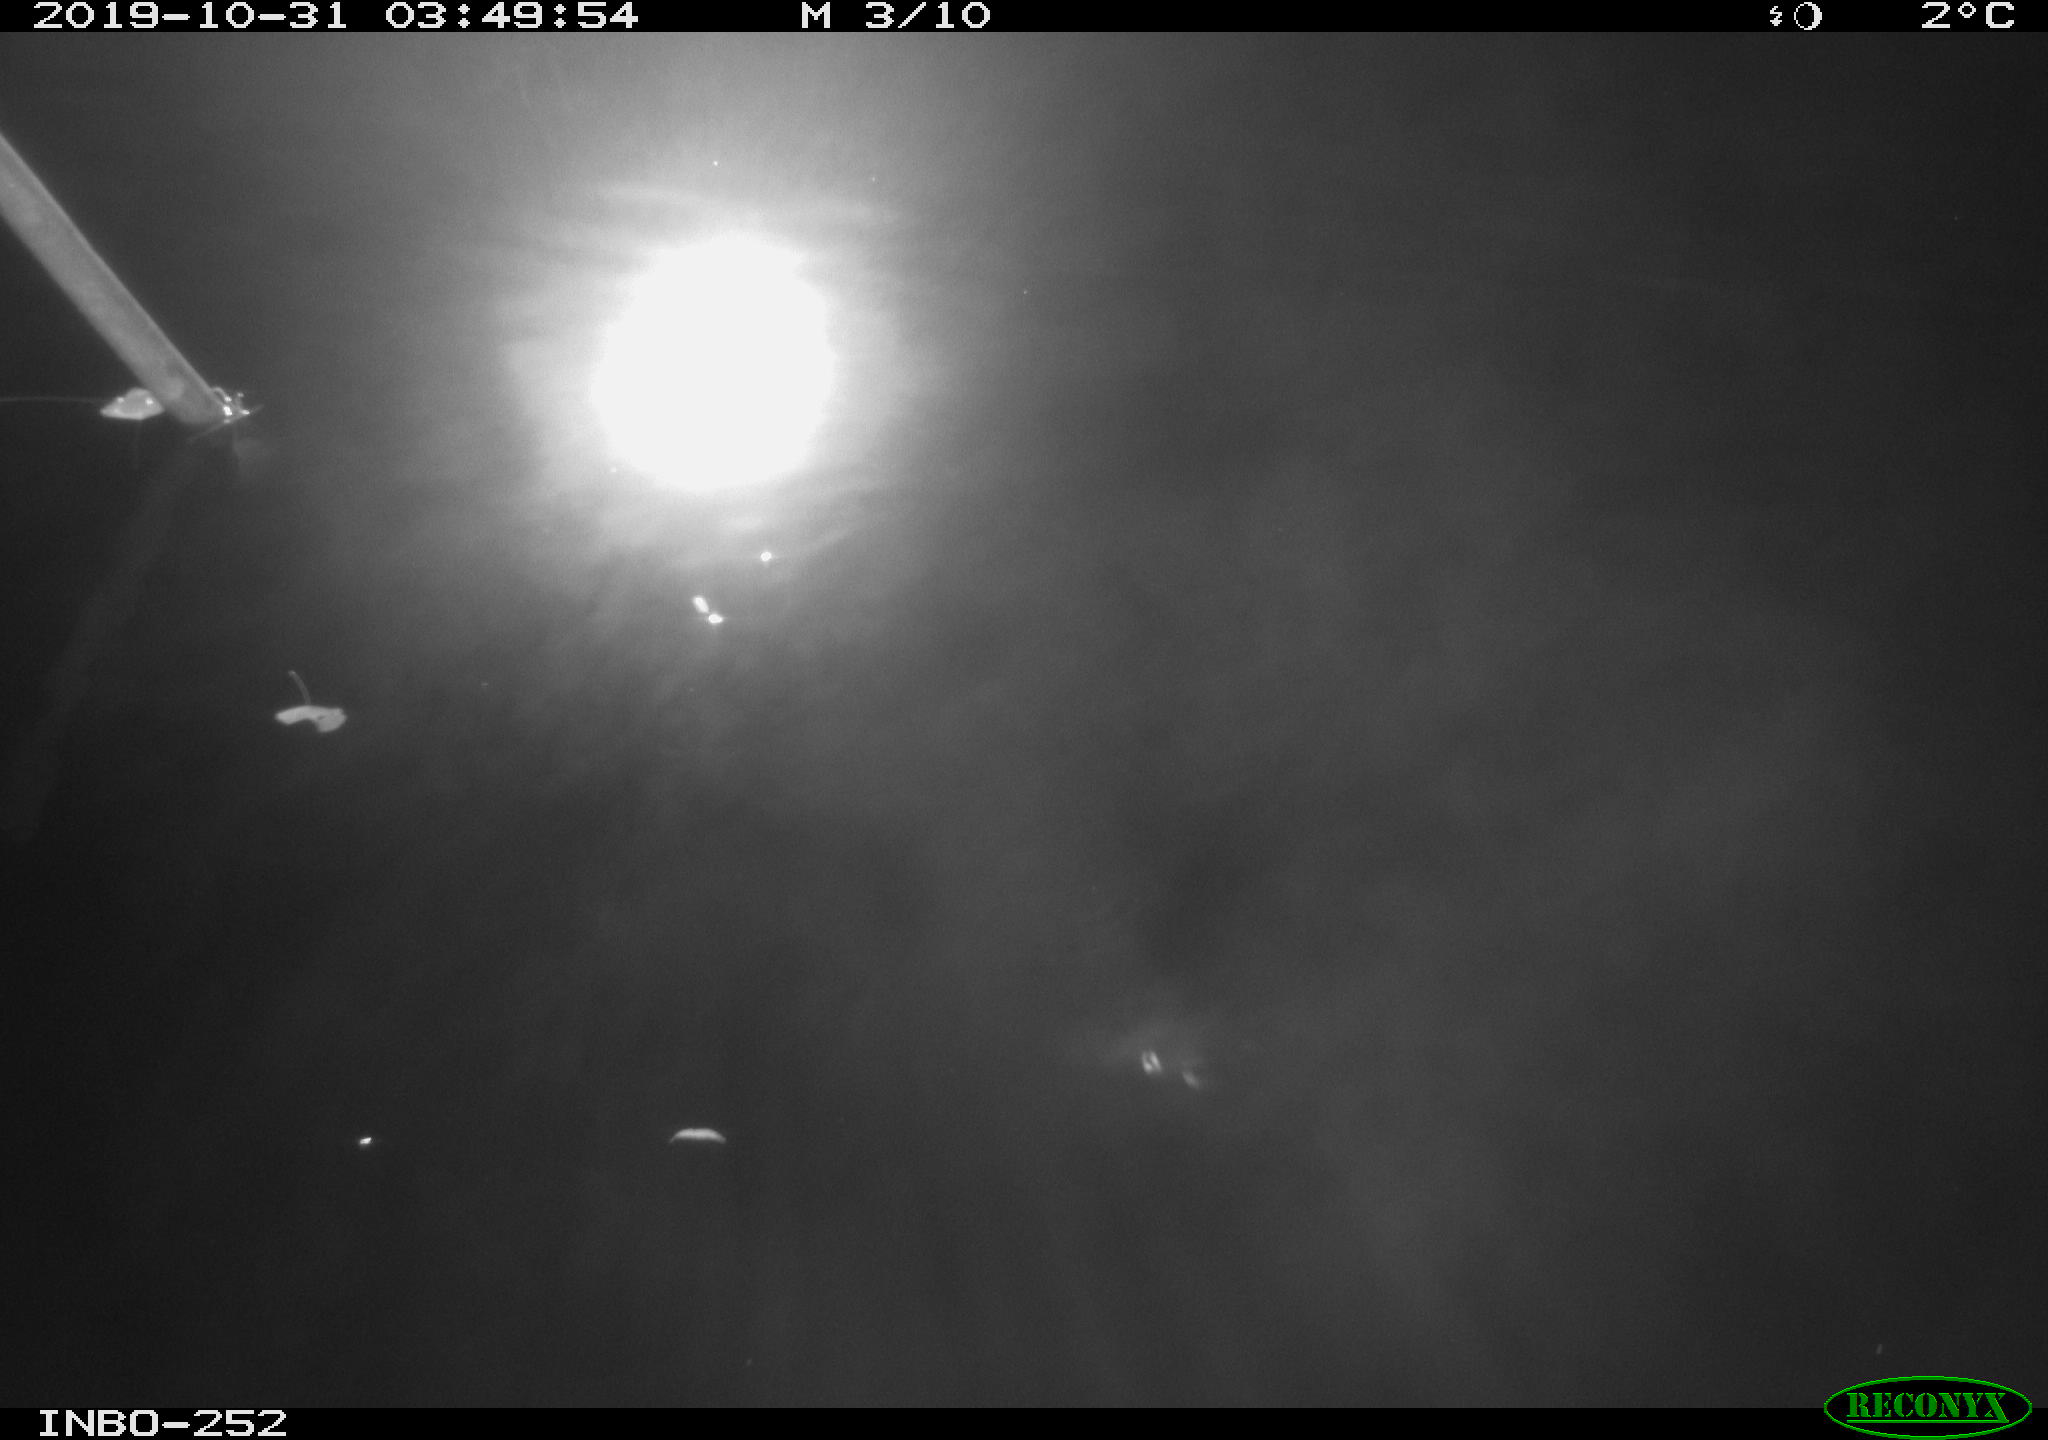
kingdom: Animalia
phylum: Chordata
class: Aves
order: Anseriformes
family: Anatidae
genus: Anas
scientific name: Anas platyrhynchos
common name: Mallard
